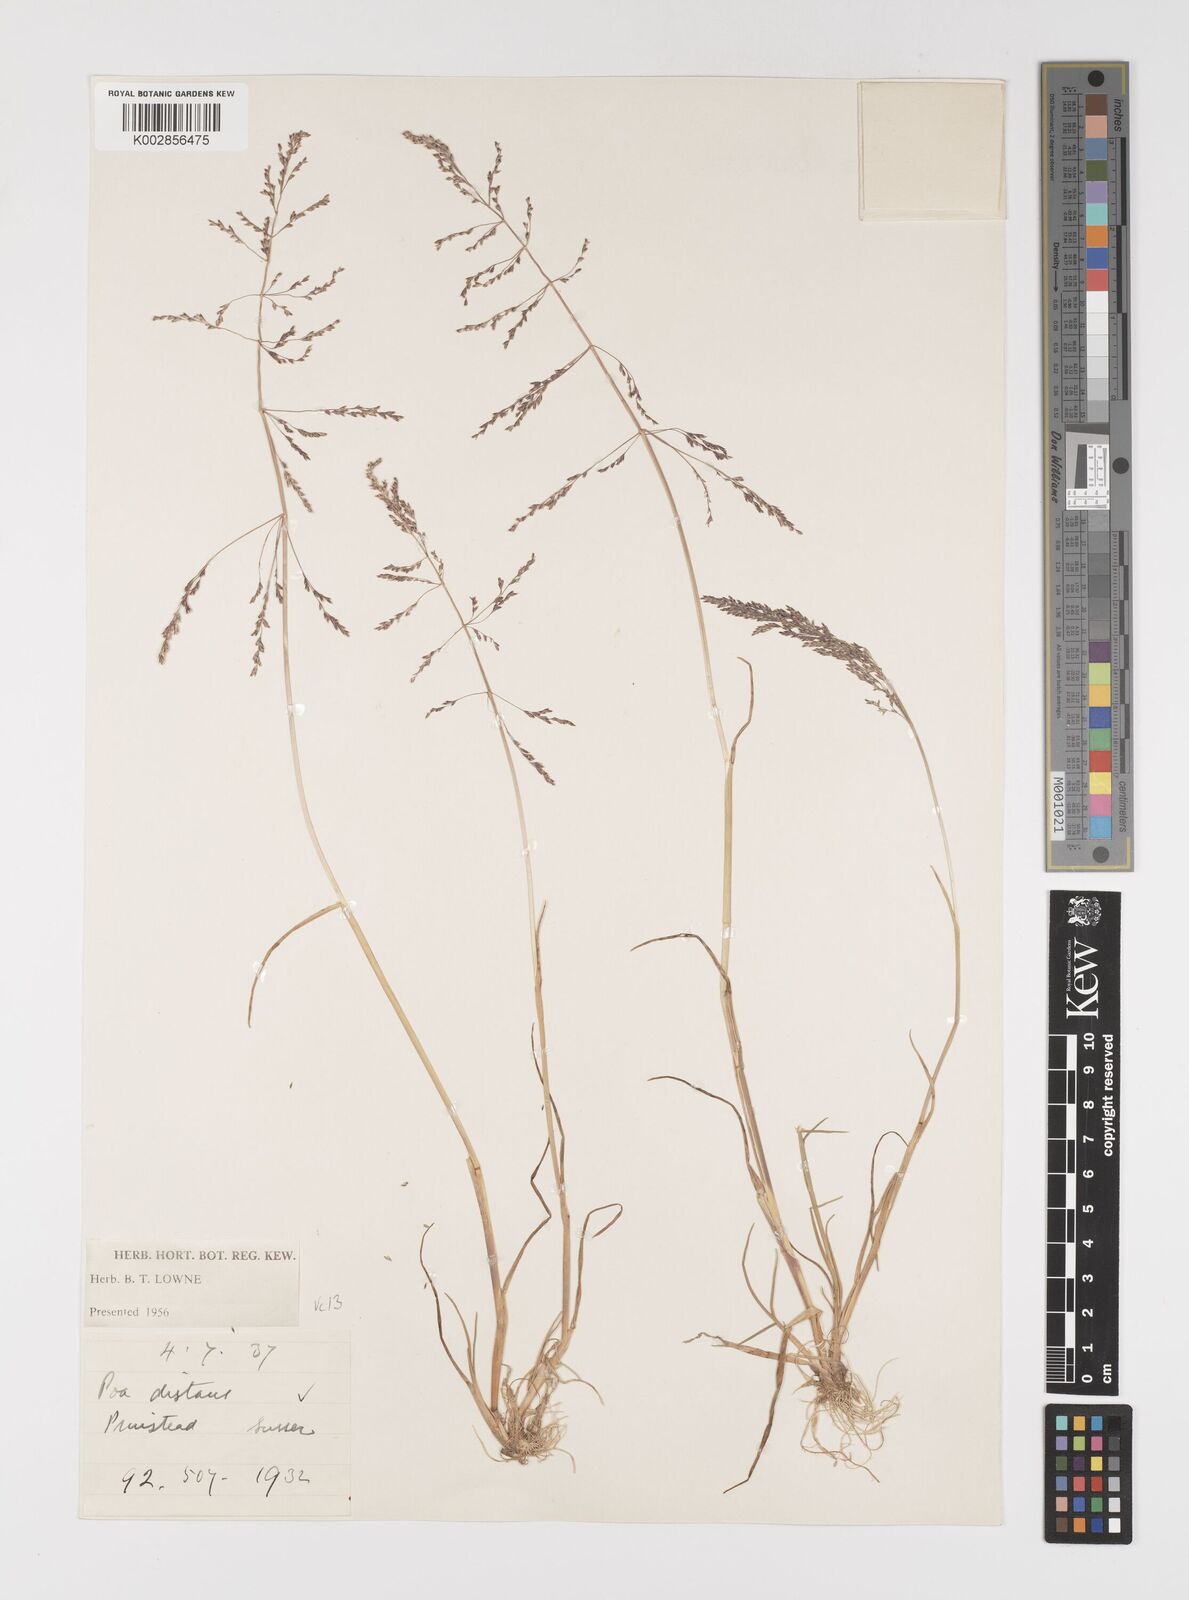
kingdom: Plantae
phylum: Tracheophyta
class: Liliopsida
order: Poales
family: Poaceae
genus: Puccinellia
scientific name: Puccinellia distans
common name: Weeping alkaligrass
